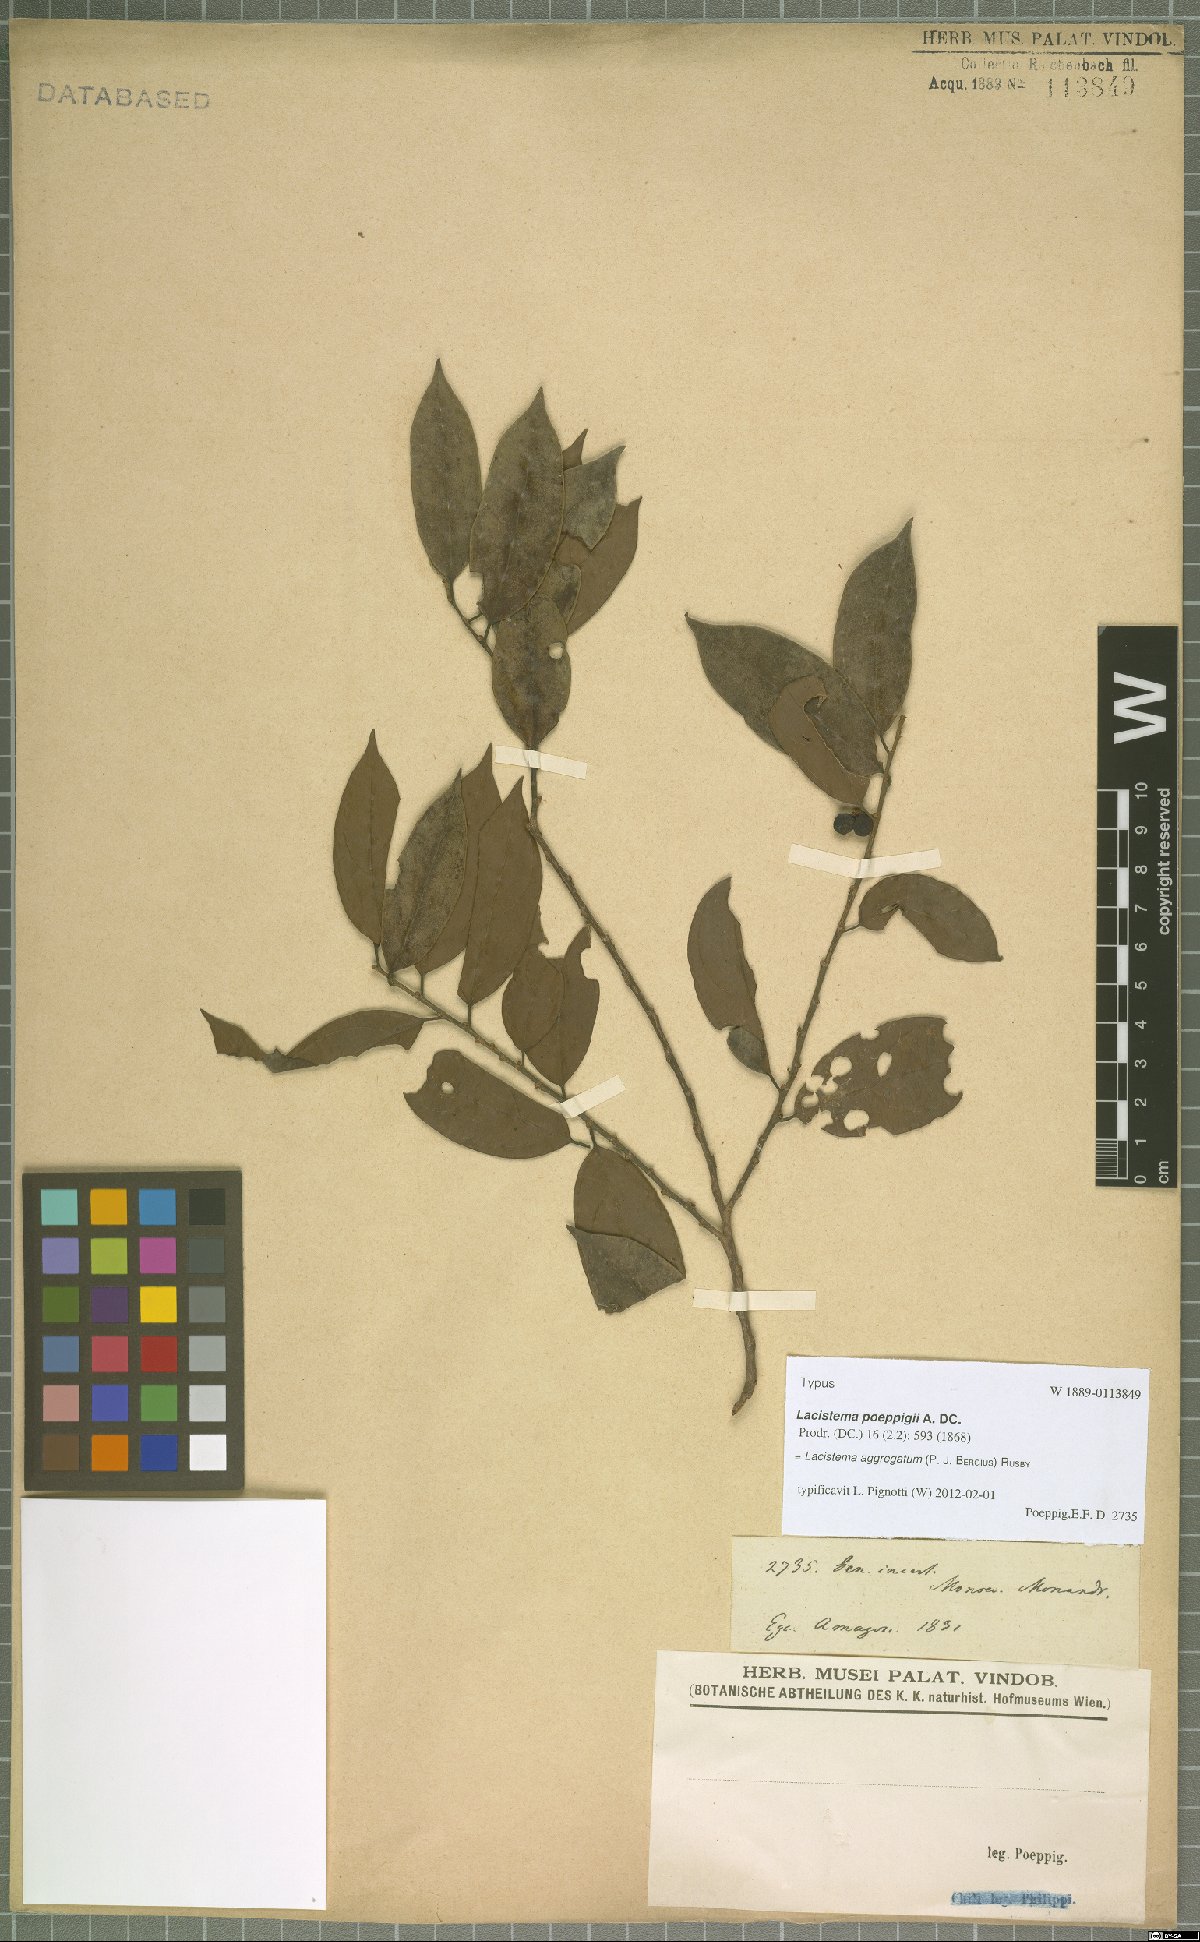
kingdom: Plantae
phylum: Tracheophyta
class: Magnoliopsida
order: Malpighiales
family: Lacistemataceae
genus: Lacistema
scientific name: Lacistema aggregatum
